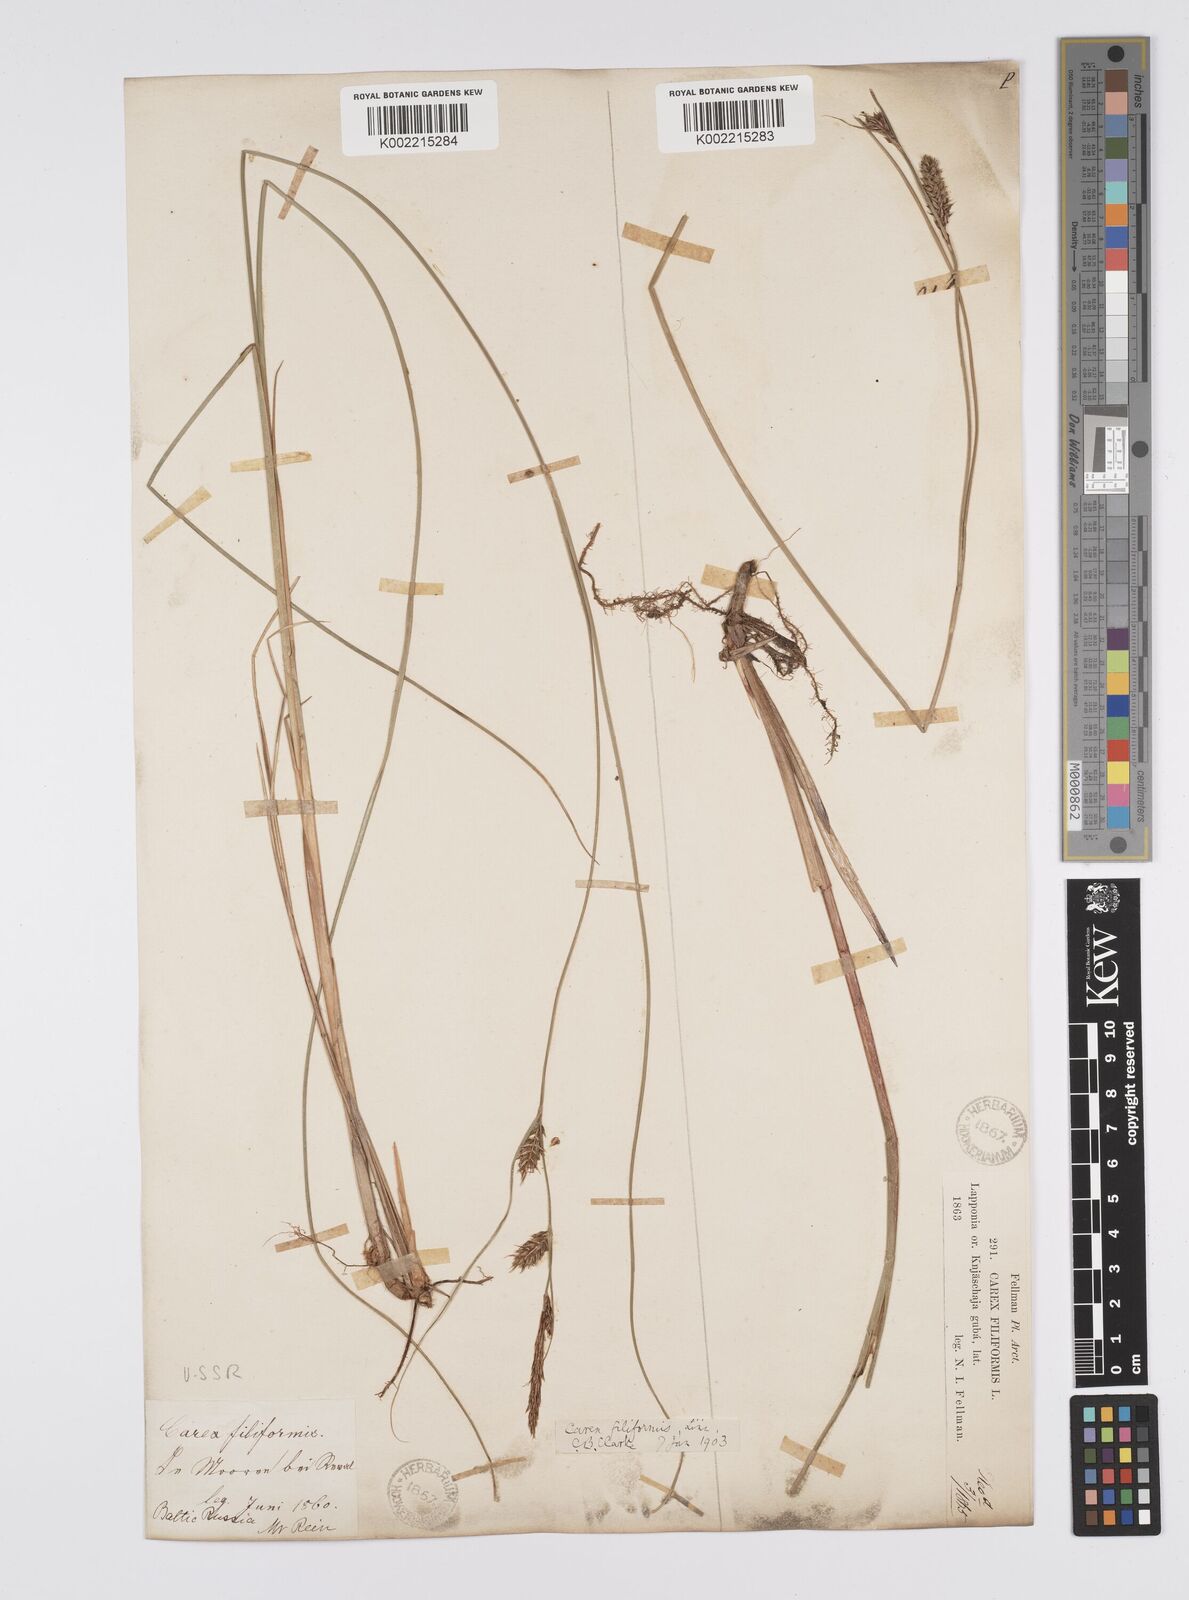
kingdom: Plantae
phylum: Tracheophyta
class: Liliopsida
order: Poales
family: Cyperaceae
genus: Carex
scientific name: Carex lasiocarpa
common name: Slender sedge
